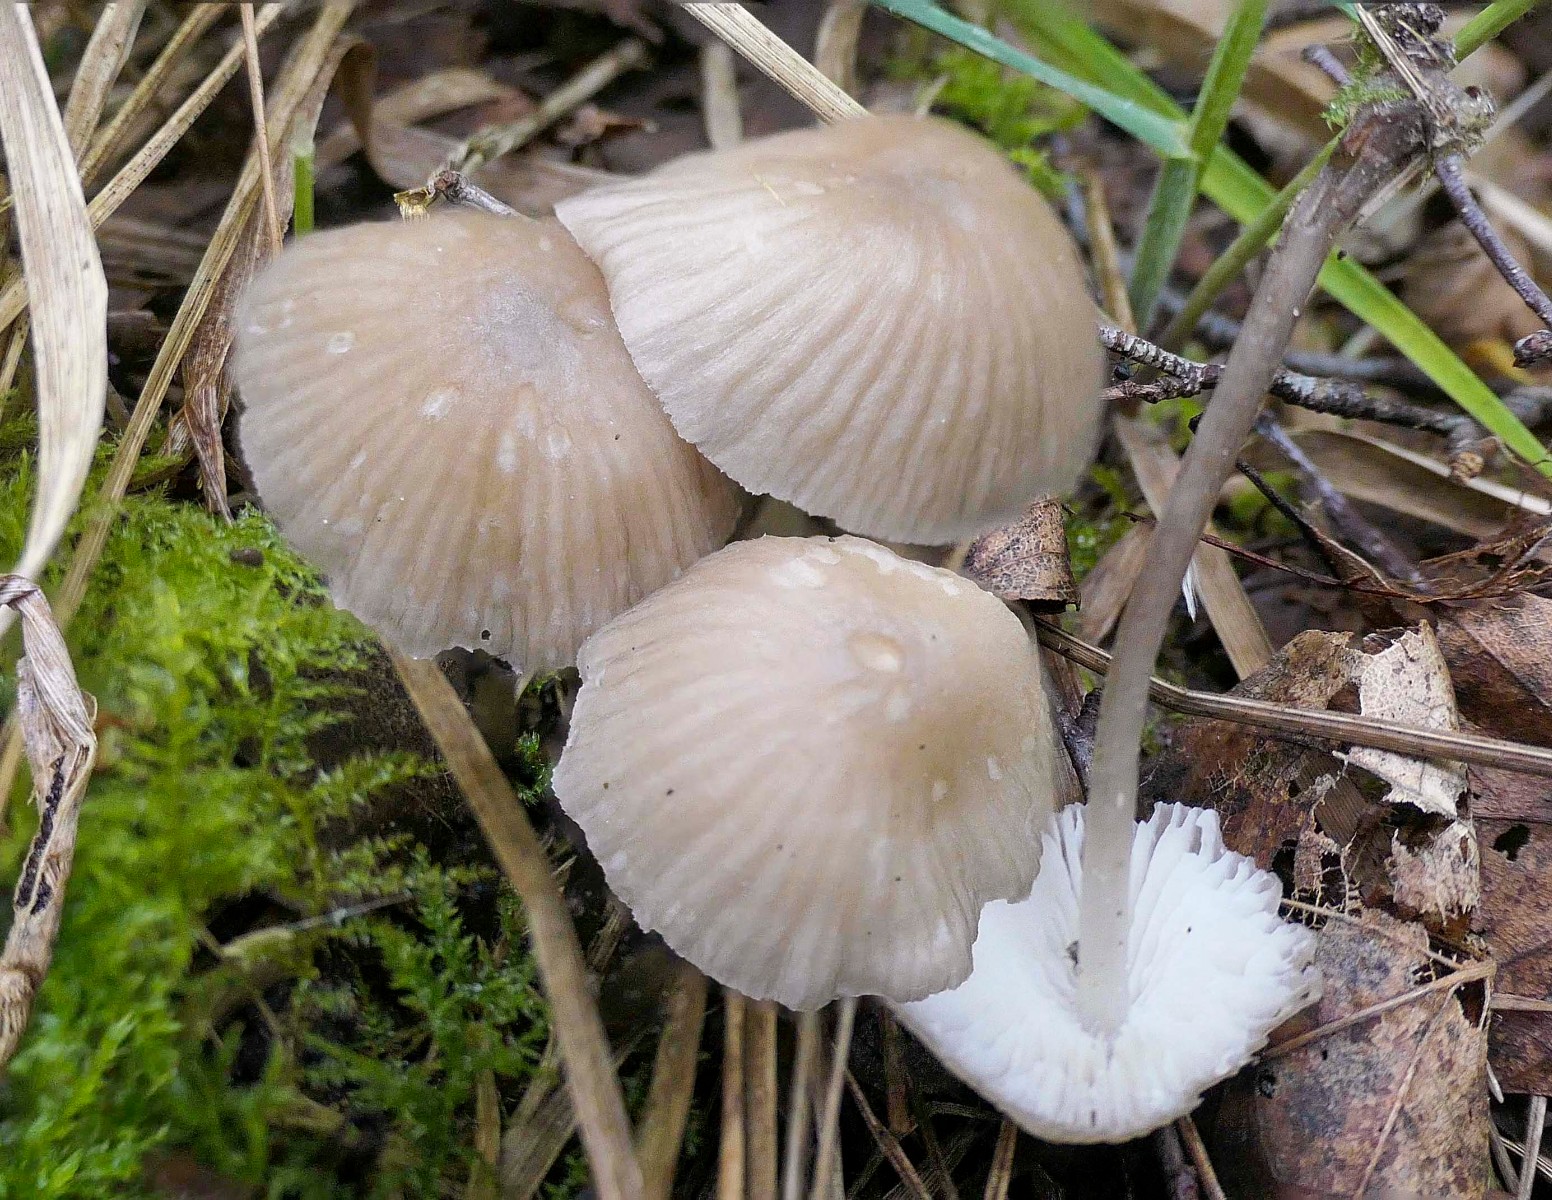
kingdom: Fungi
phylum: Basidiomycota
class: Agaricomycetes
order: Agaricales
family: Mycenaceae
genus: Mycena
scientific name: Mycena
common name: huesvamp
